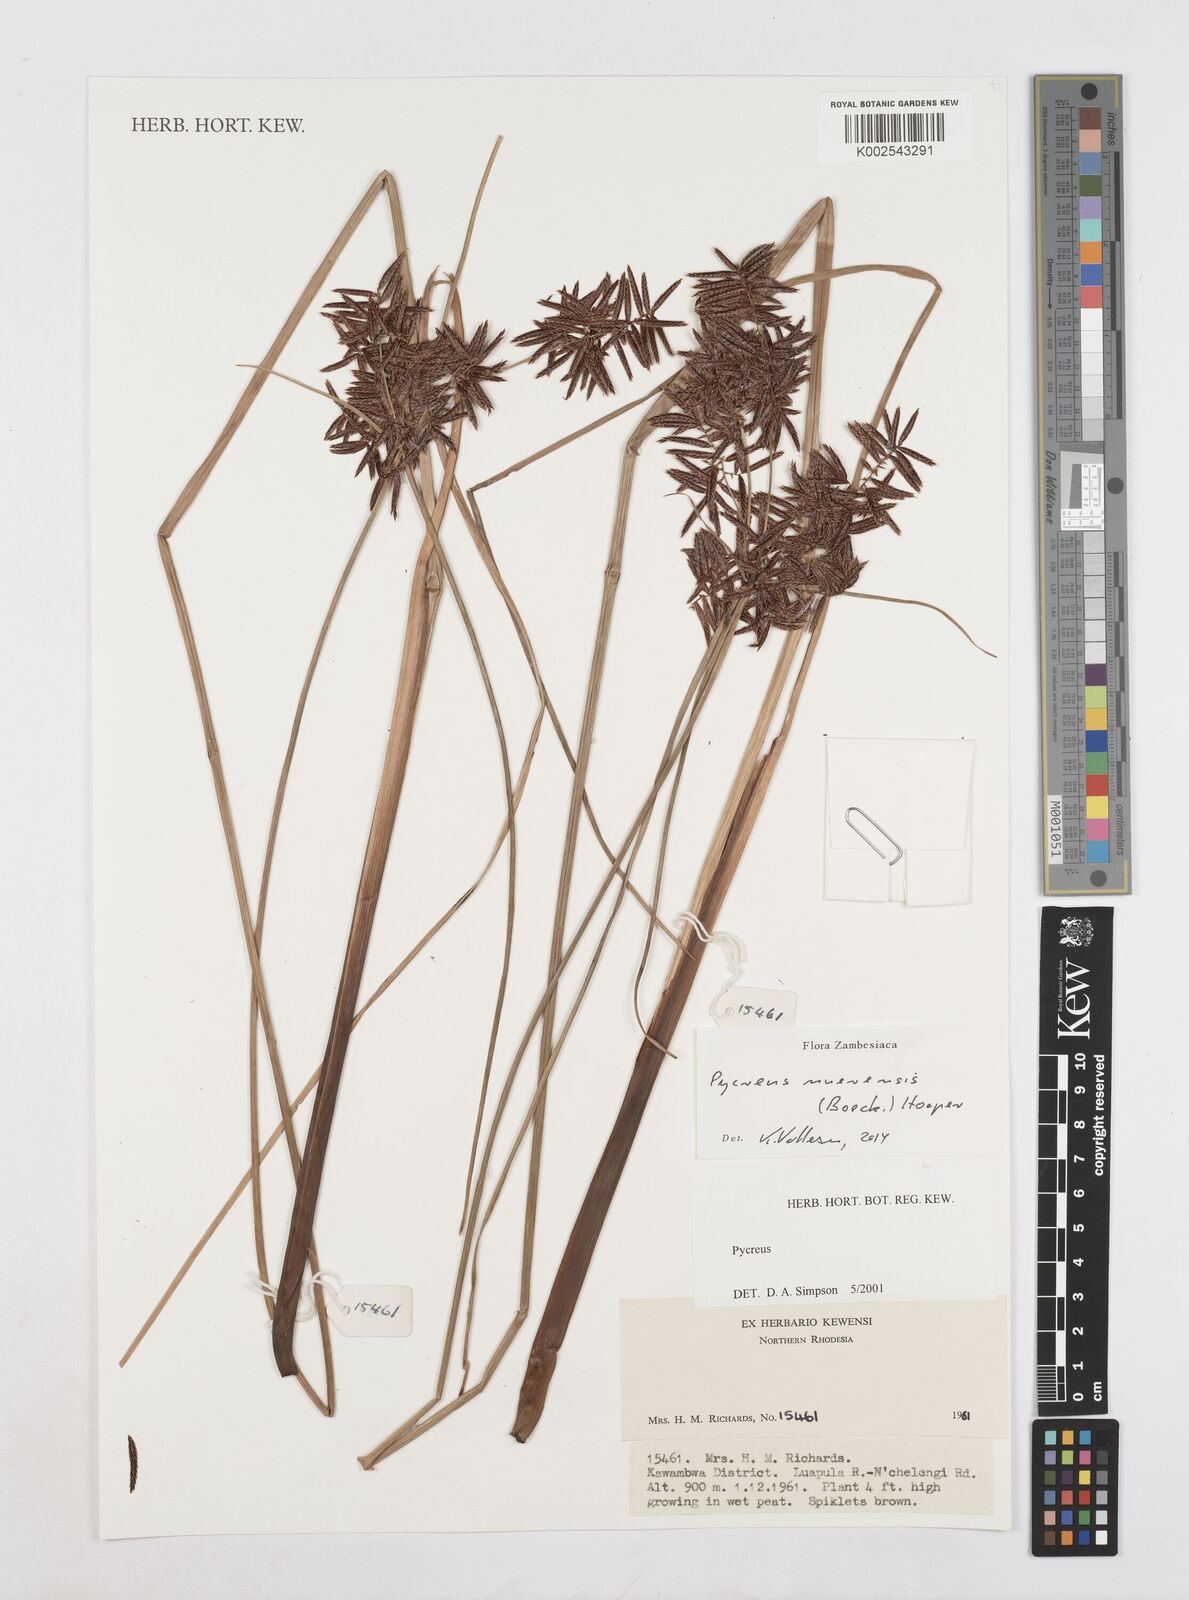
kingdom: Plantae
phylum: Tracheophyta
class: Liliopsida
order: Poales
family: Cyperaceae
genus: Cyperus
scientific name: Cyperus nuerensis
